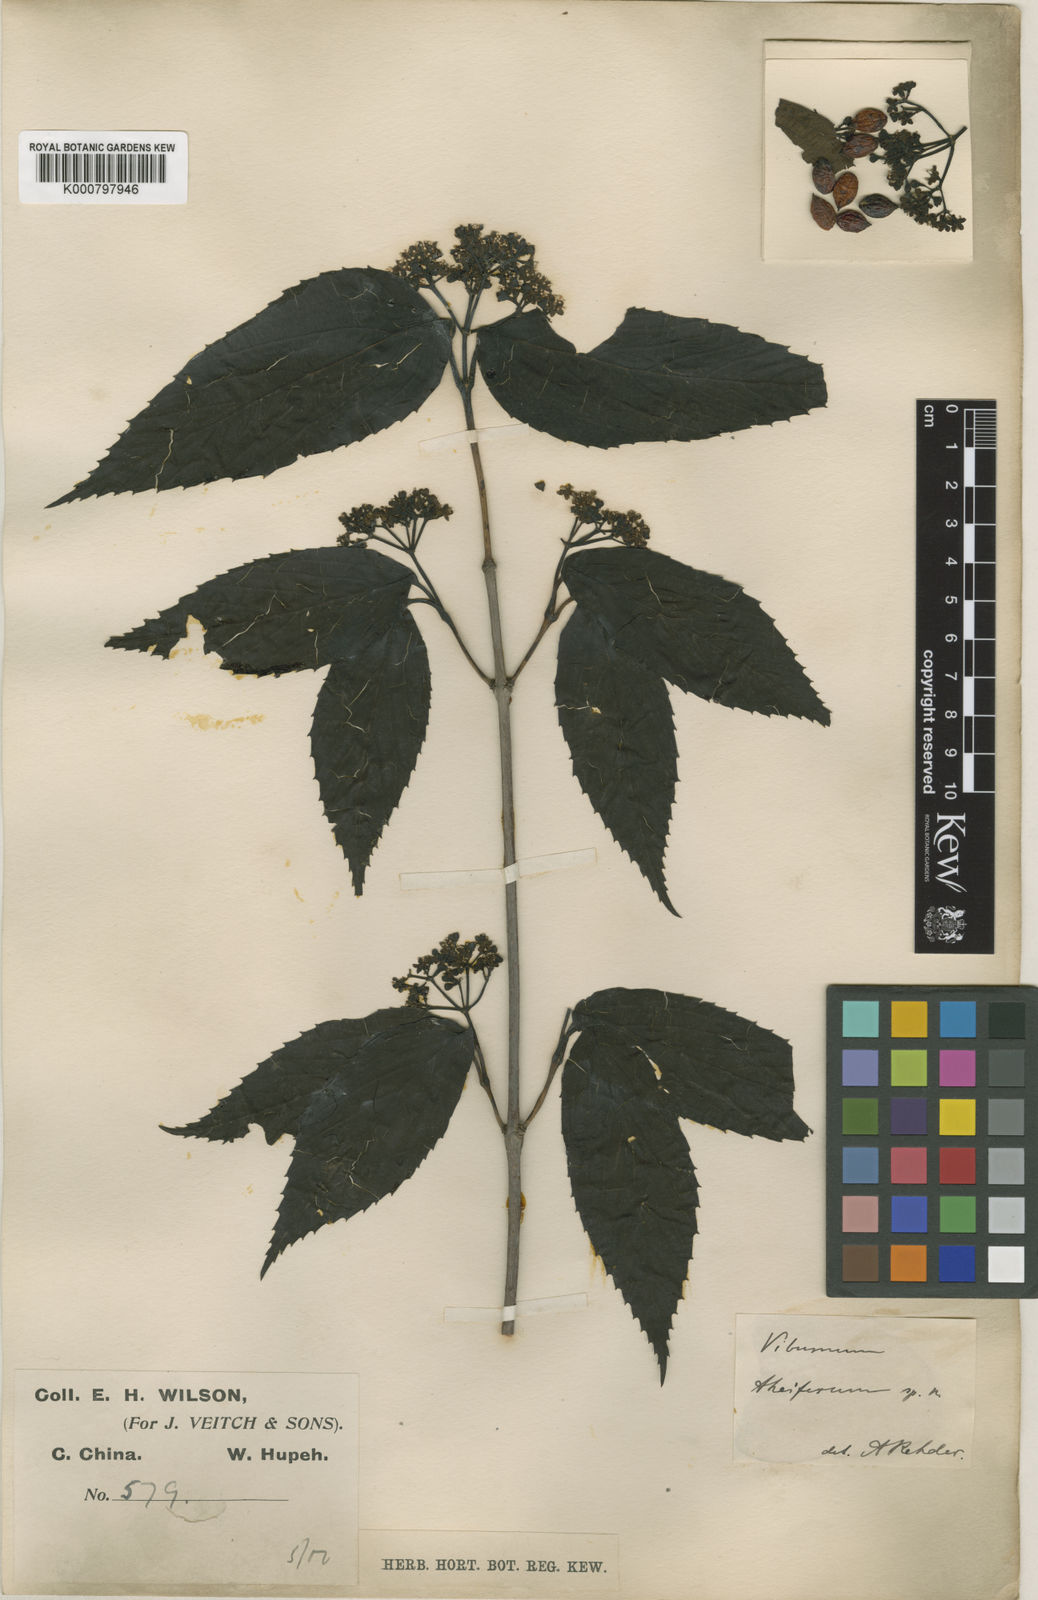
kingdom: Plantae
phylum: Tracheophyta
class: Magnoliopsida
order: Dipsacales
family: Viburnaceae
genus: Viburnum
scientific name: Viburnum setigerum
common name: Tea viburnum
